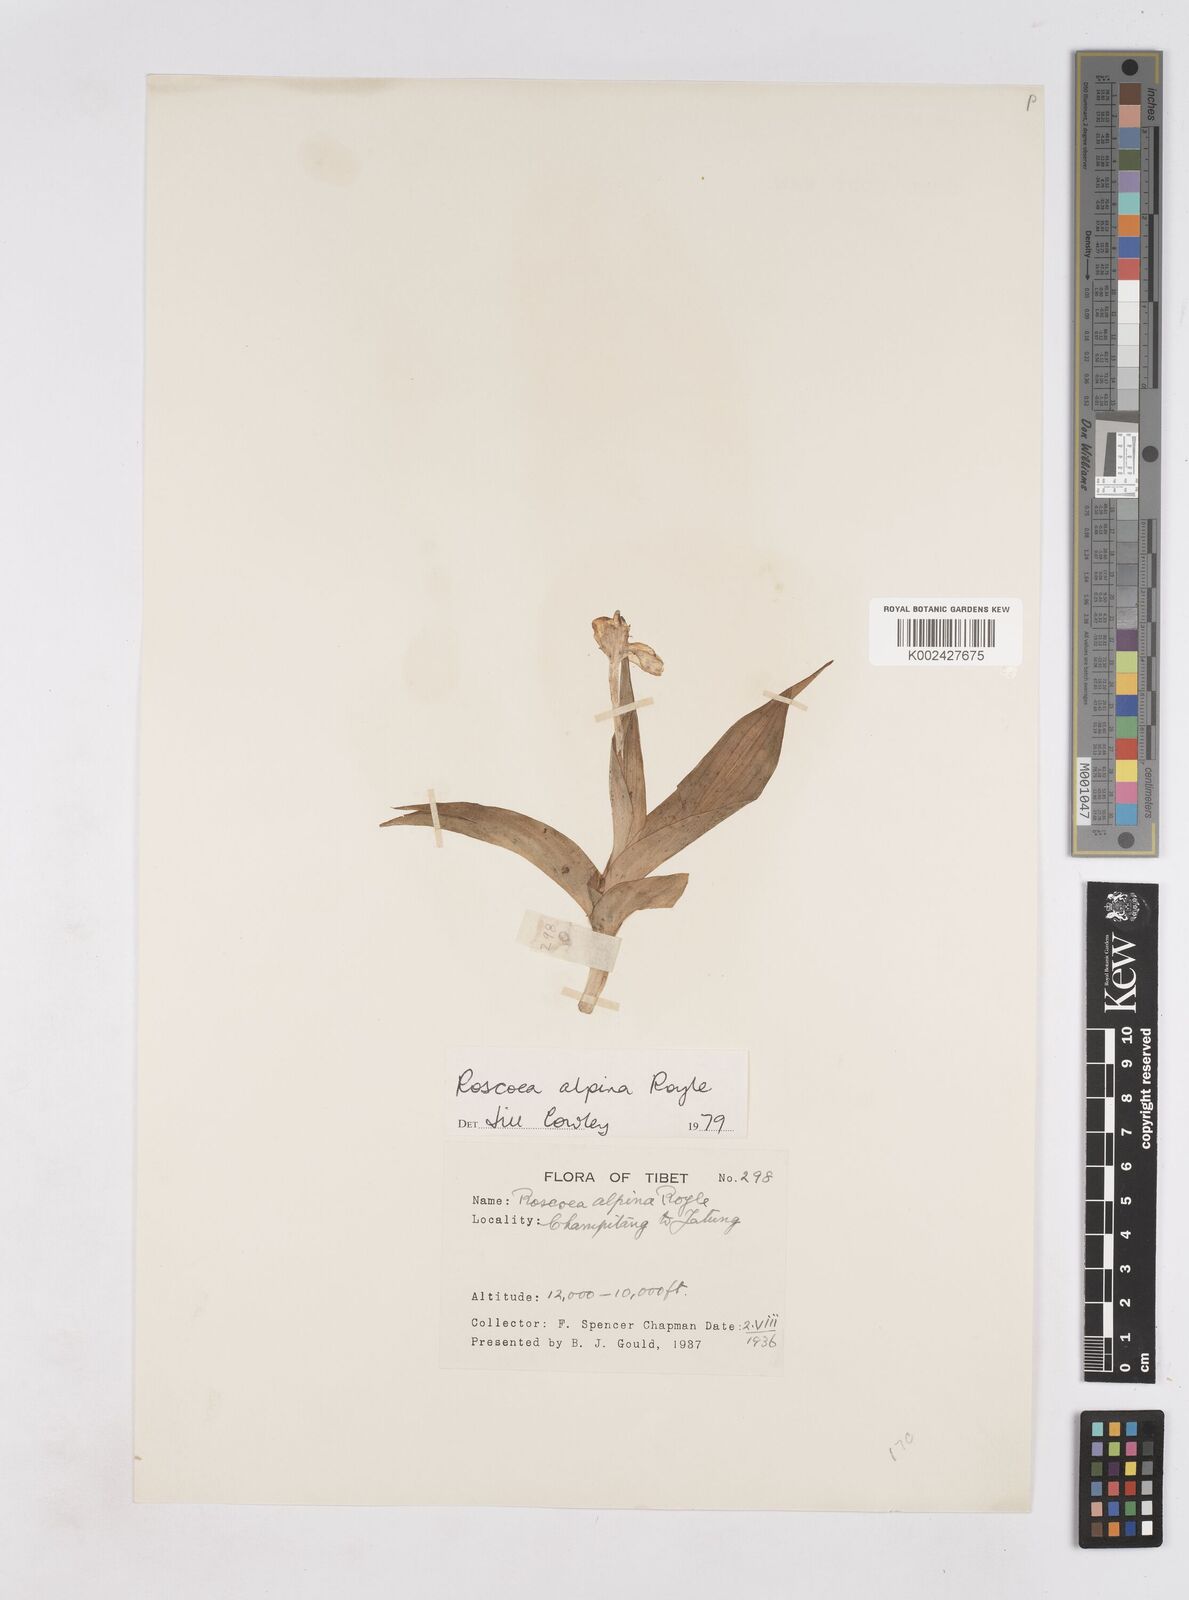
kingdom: Plantae
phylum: Tracheophyta
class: Liliopsida
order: Zingiberales
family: Zingiberaceae
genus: Roscoea
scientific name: Roscoea alpina
